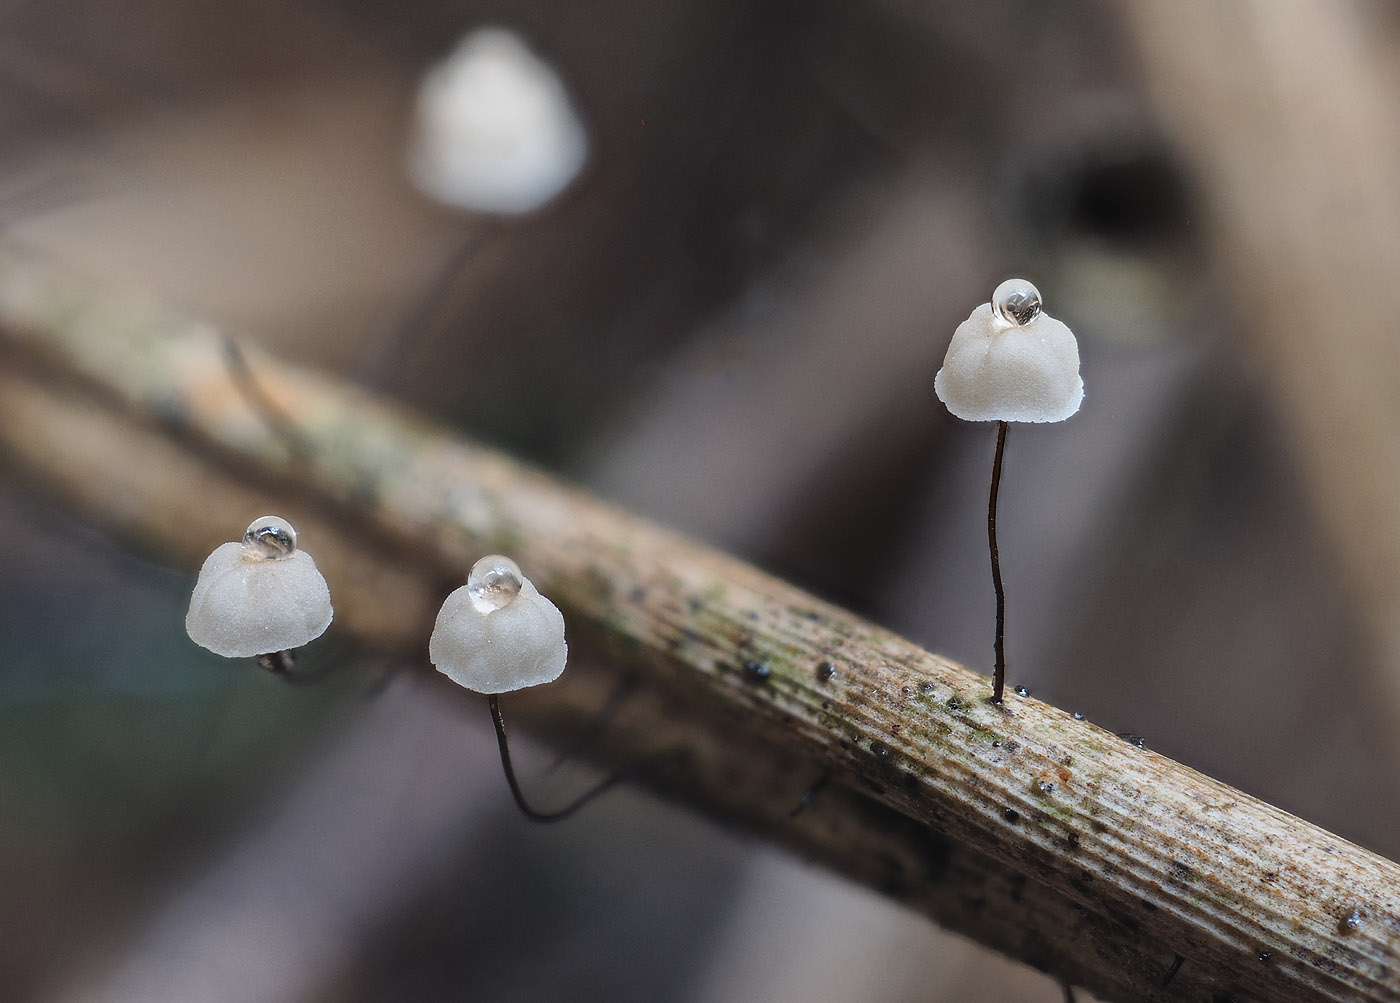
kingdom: Fungi
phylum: Basidiomycota
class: Agaricomycetes
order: Agaricales
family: Marasmiaceae
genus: Marasmius
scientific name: Marasmius limosus
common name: kær-bruskhat
